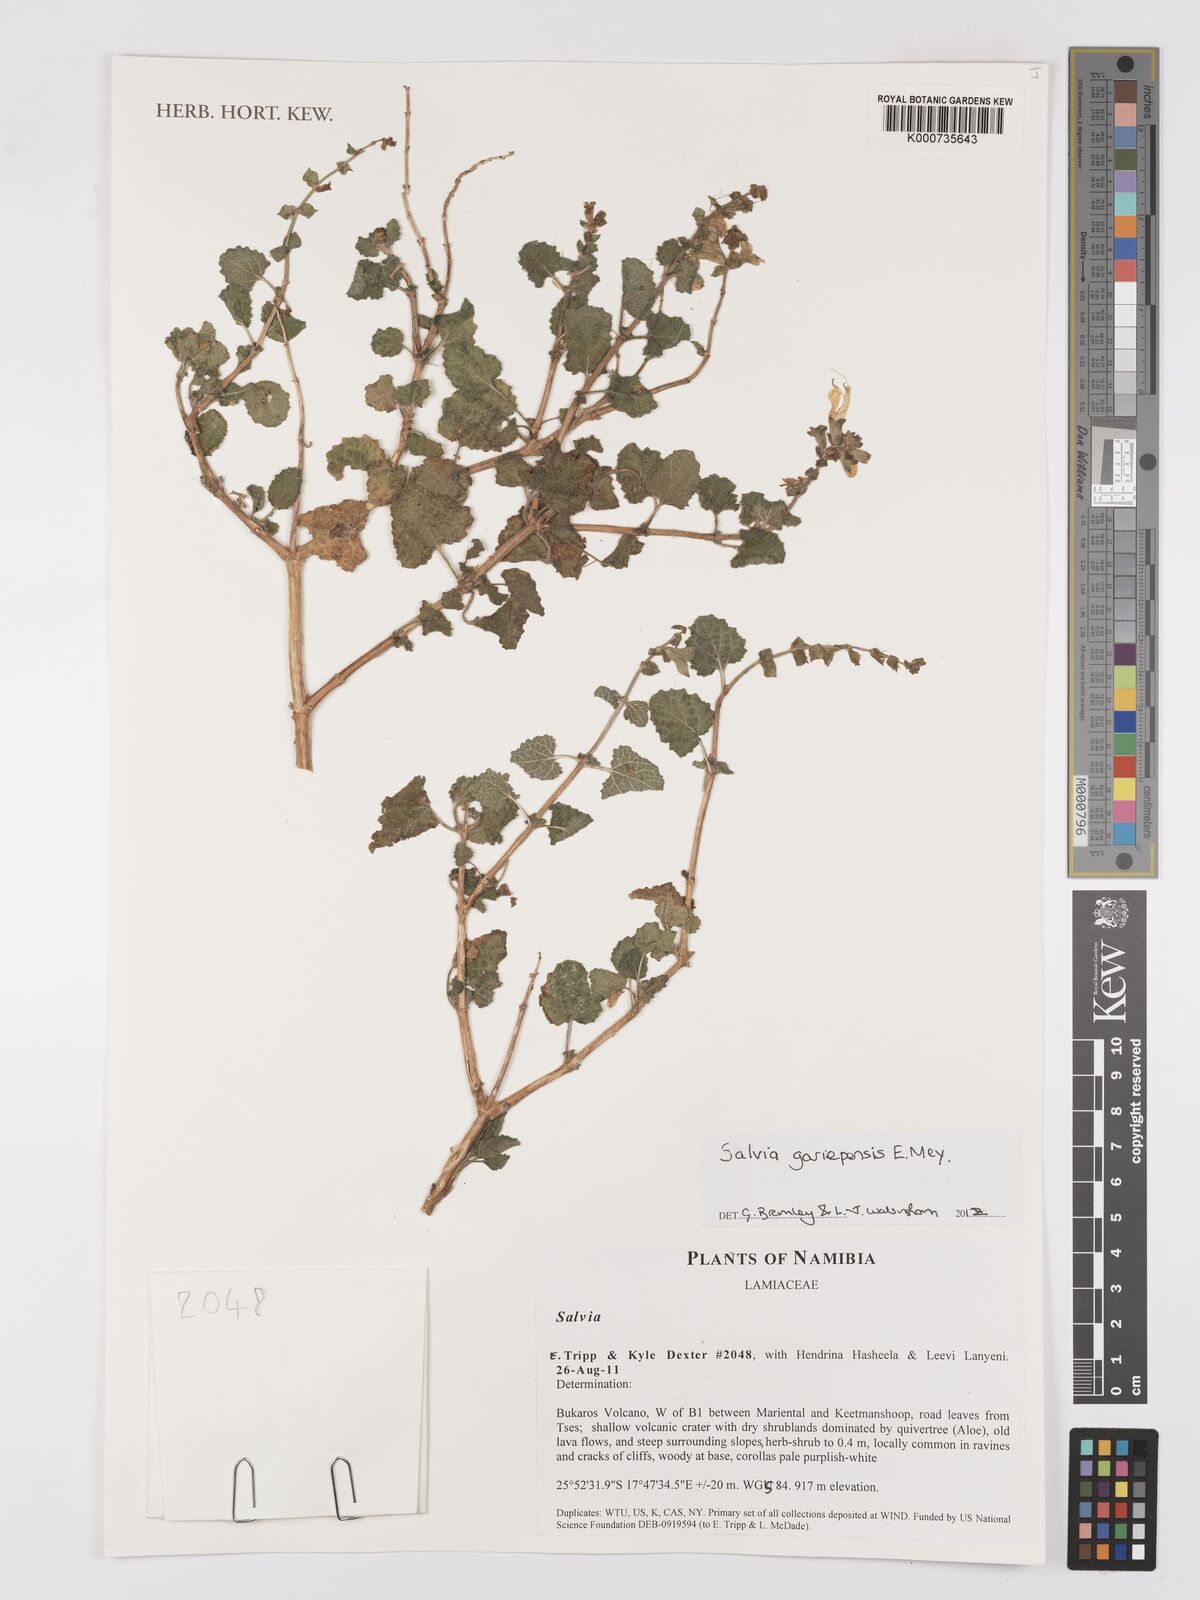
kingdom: Plantae
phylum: Tracheophyta
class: Magnoliopsida
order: Lamiales
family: Lamiaceae
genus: Salvia
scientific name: Salvia gariepensis
